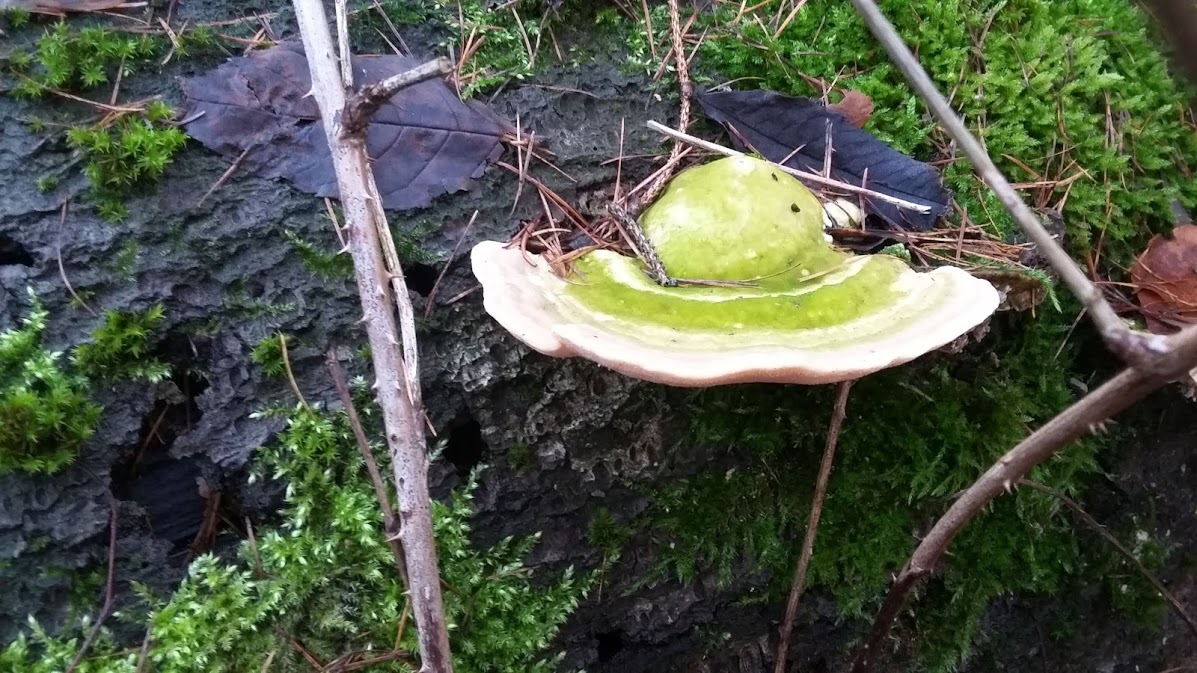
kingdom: Fungi
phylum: Basidiomycota
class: Agaricomycetes
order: Polyporales
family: Polyporaceae
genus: Trametes
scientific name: Trametes gibbosa
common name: puklet læderporesvamp
